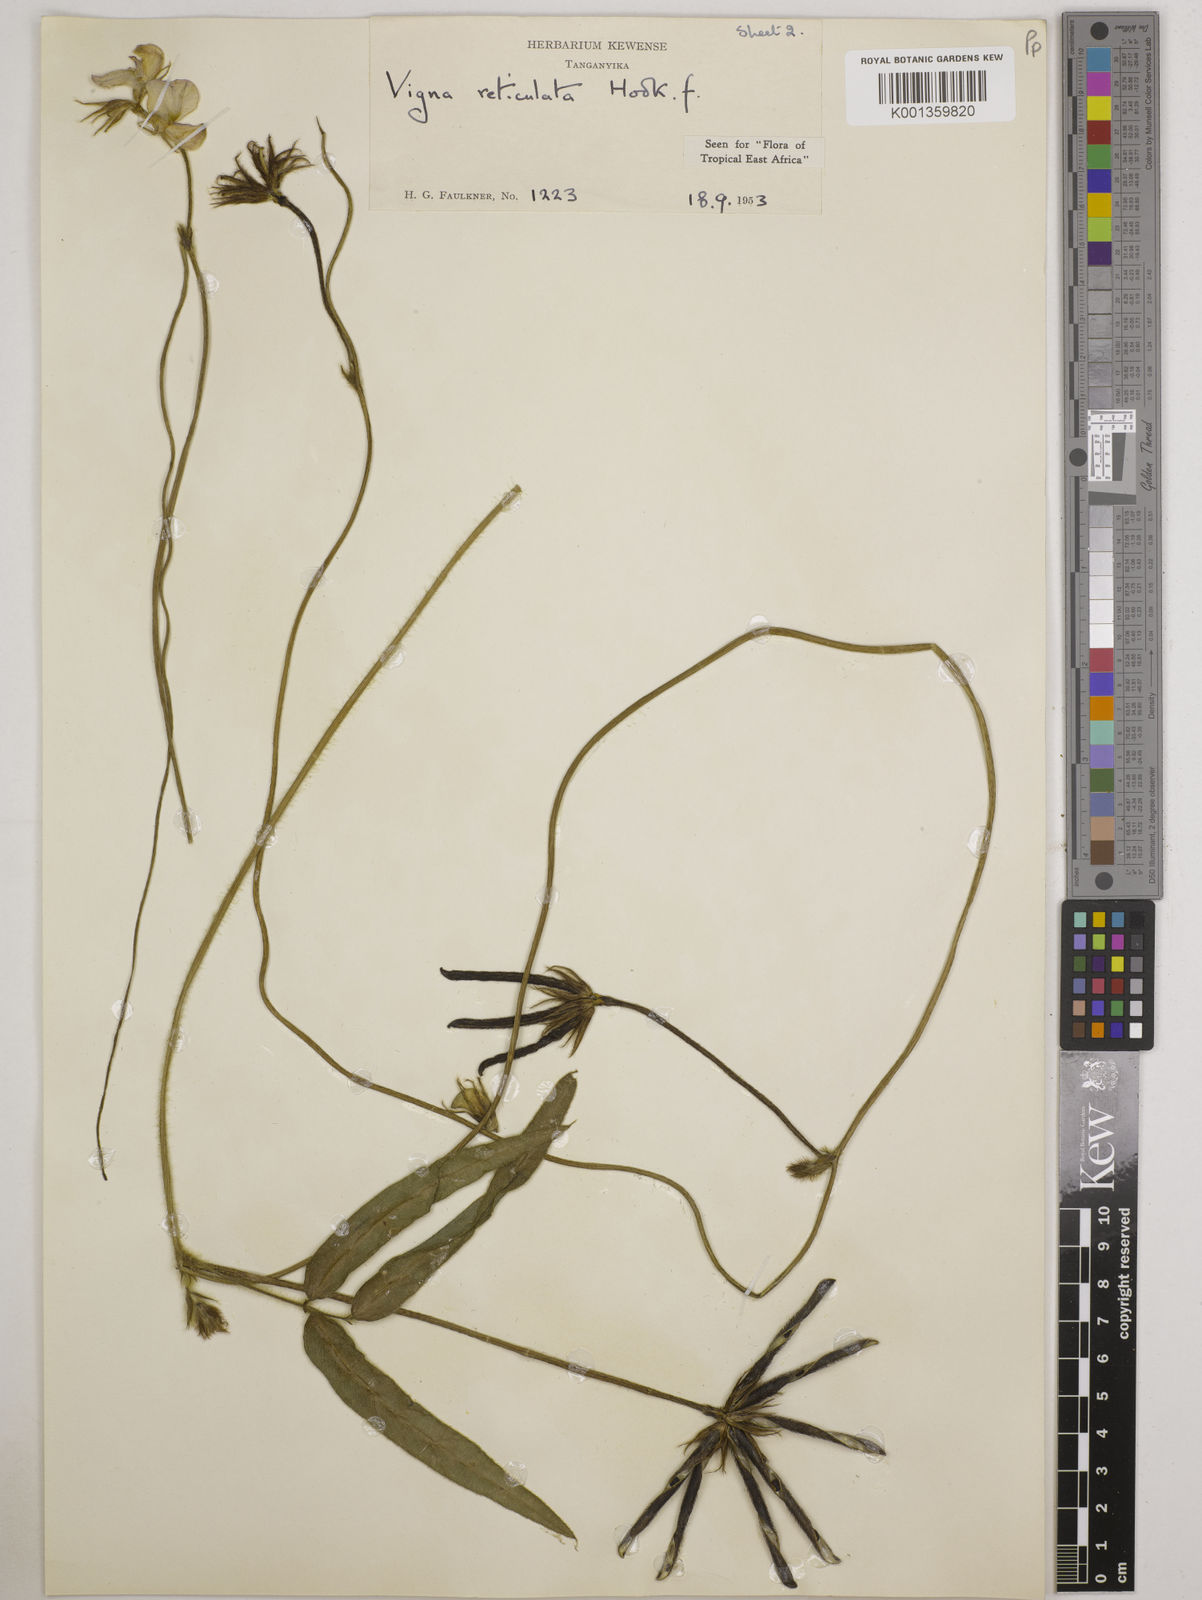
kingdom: Plantae
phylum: Tracheophyta
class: Magnoliopsida
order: Fabales
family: Fabaceae
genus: Vigna
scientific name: Vigna reticulata
